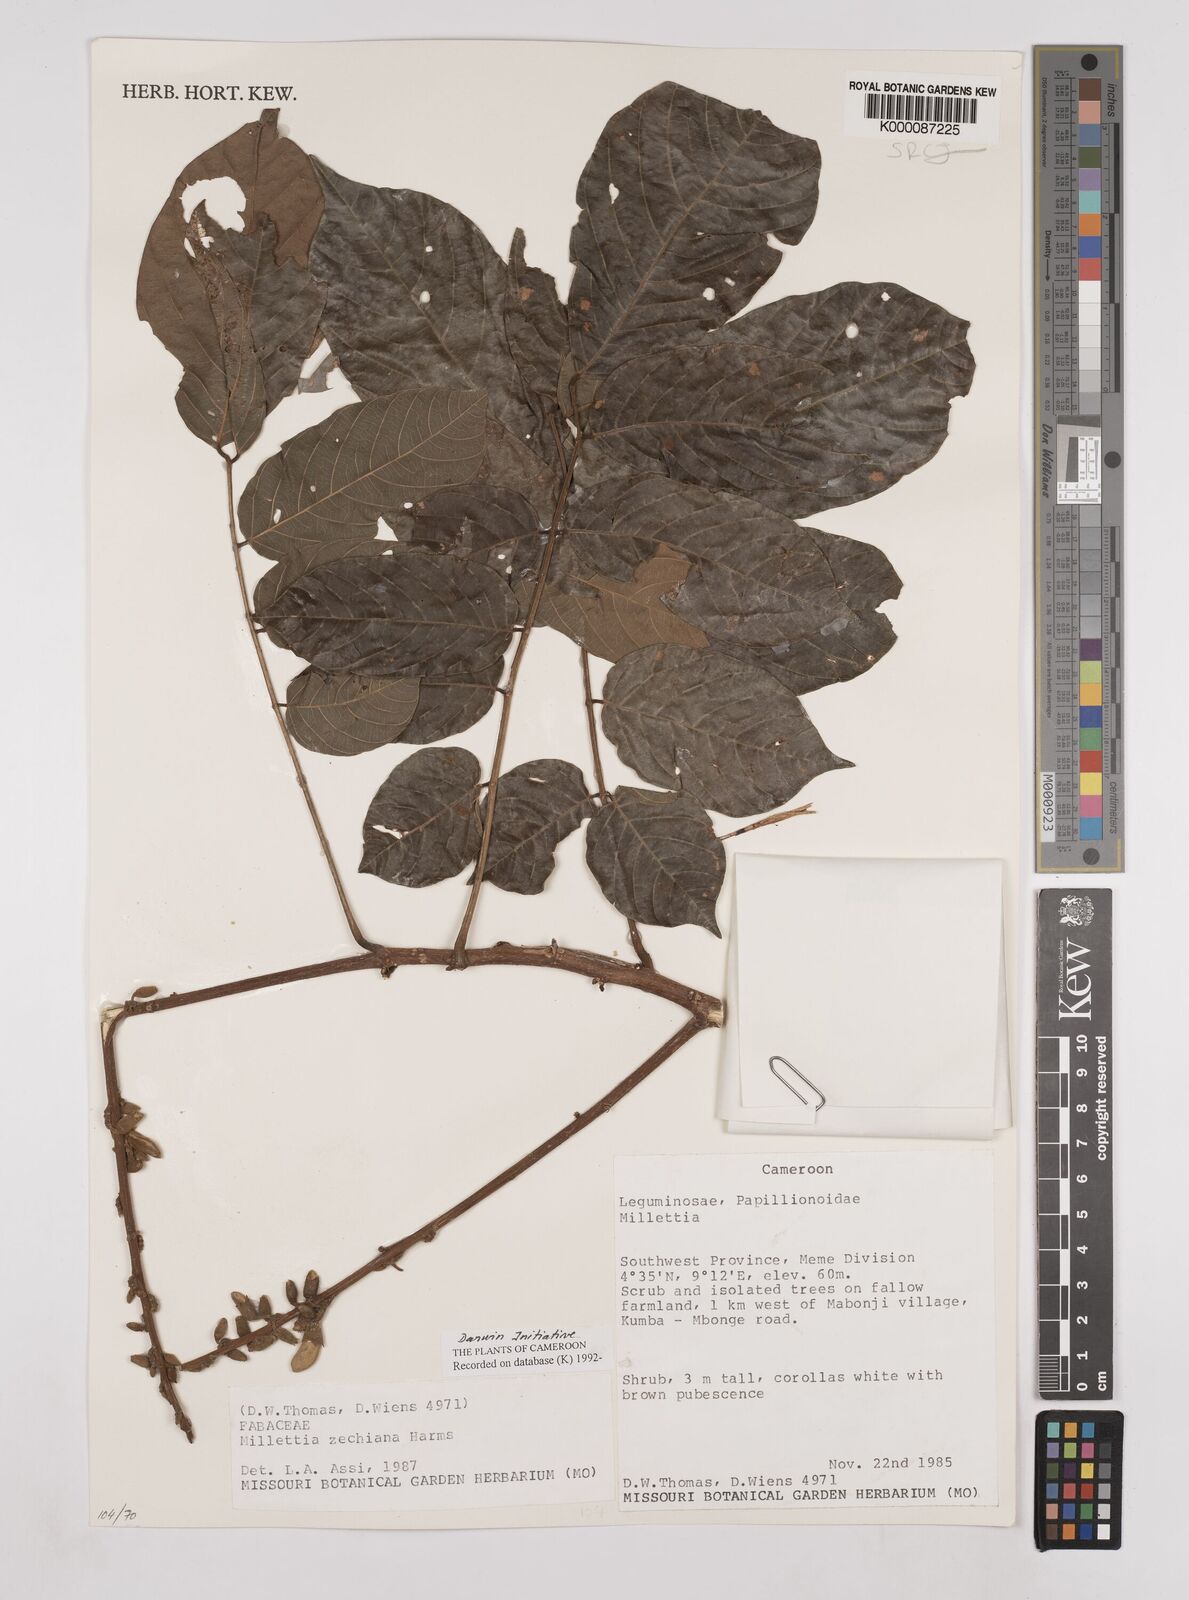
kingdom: Plantae
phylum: Tracheophyta
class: Magnoliopsida
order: Fabales
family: Fabaceae
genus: Millettia
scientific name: Millettia zechiana
